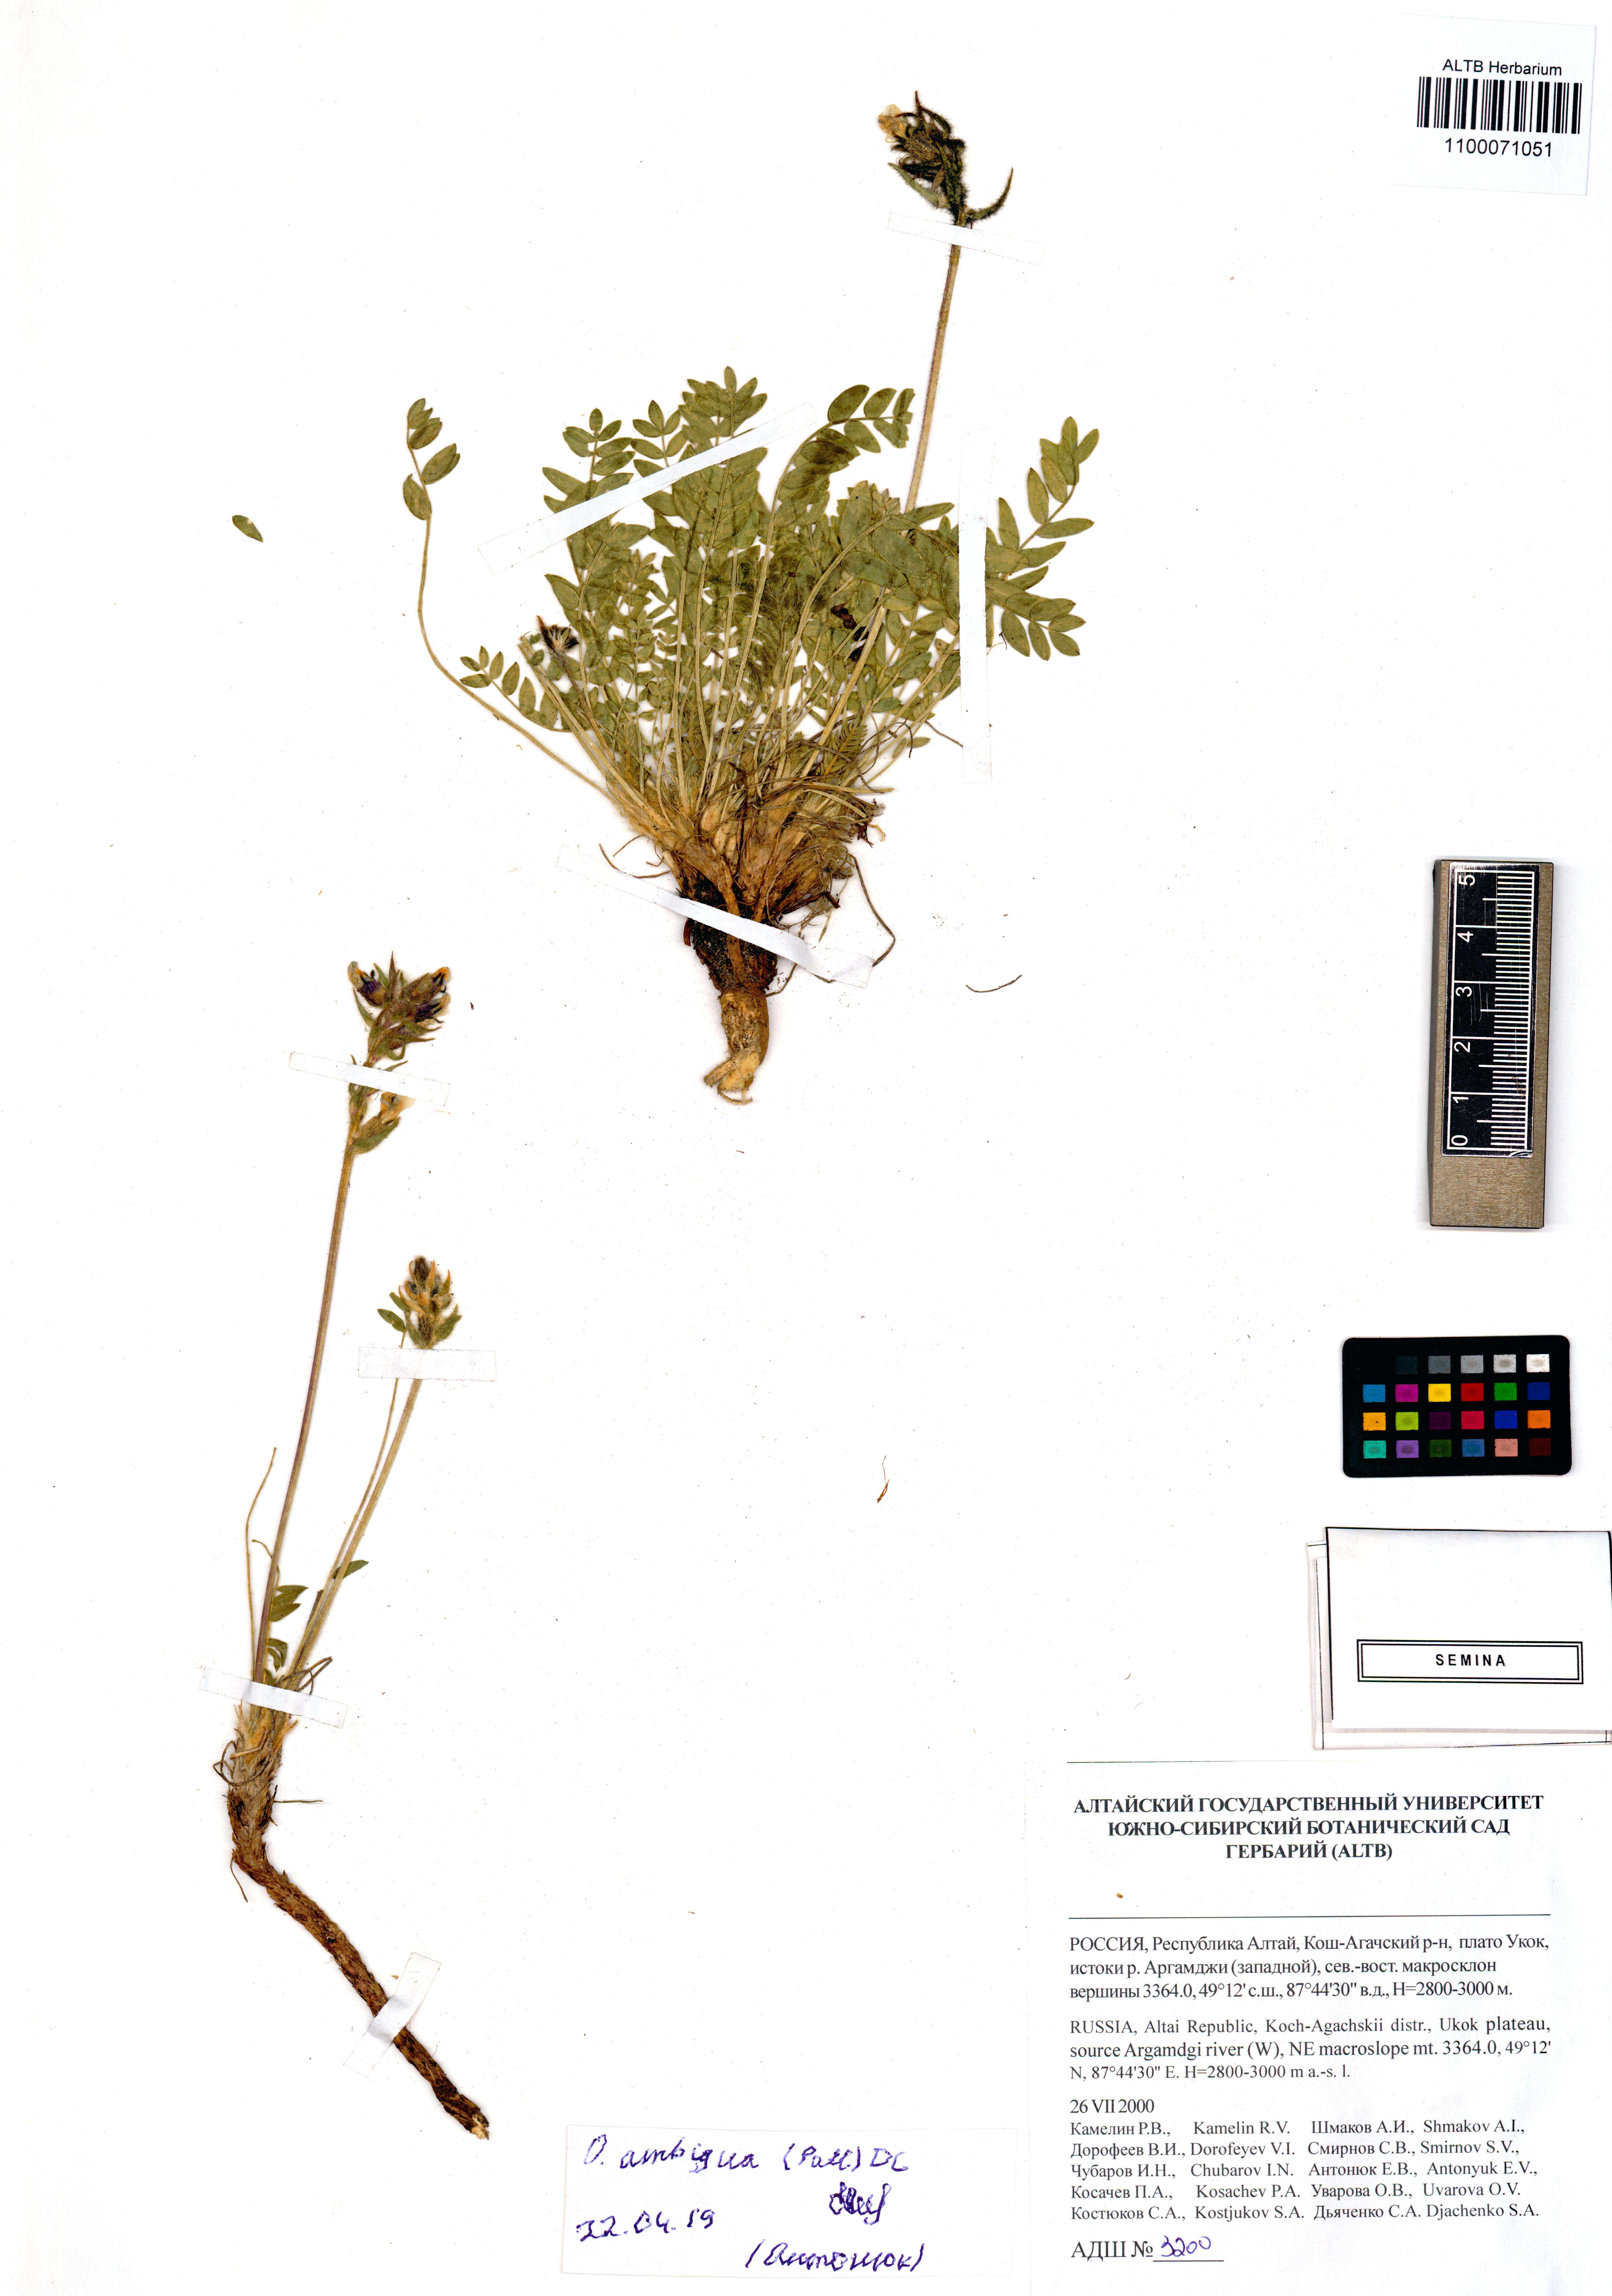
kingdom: Plantae
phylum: Tracheophyta
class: Magnoliopsida
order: Fabales
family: Fabaceae
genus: Oxytropis
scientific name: Oxytropis ambigua
